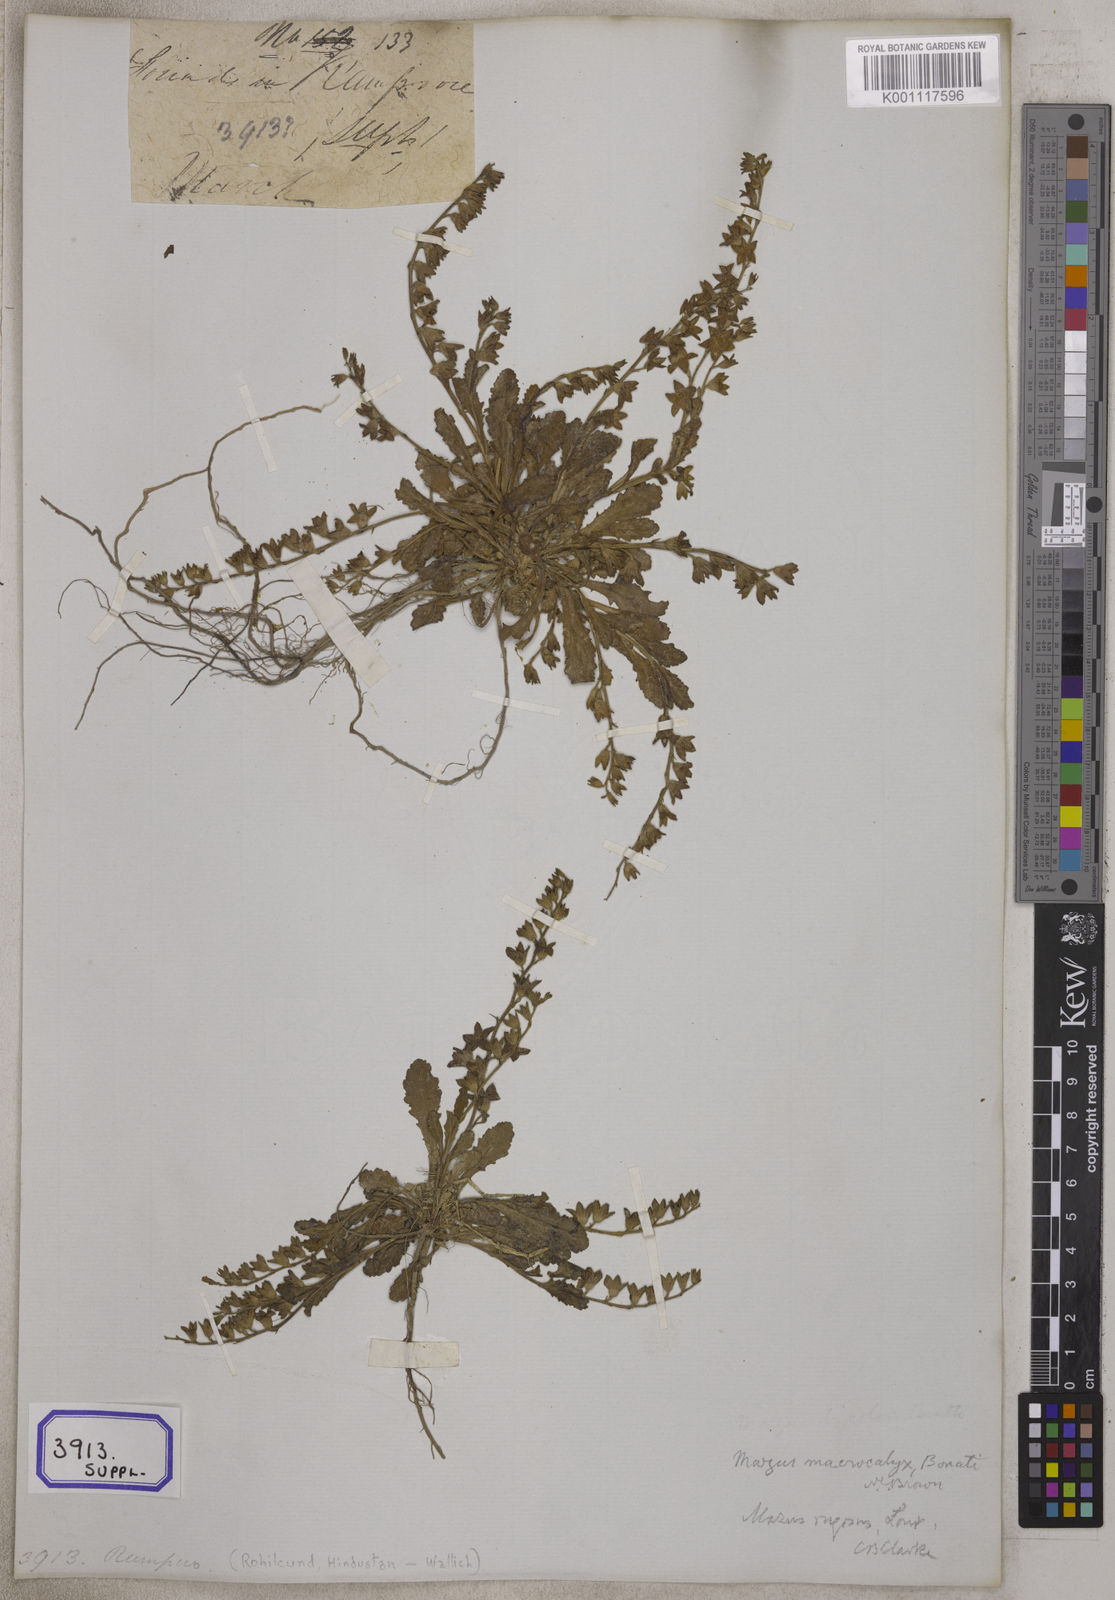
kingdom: Plantae
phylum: Tracheophyta
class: Magnoliopsida
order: Lamiales
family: Mazaceae
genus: Mazus
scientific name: Mazus pumilus
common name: Japanese mazus
